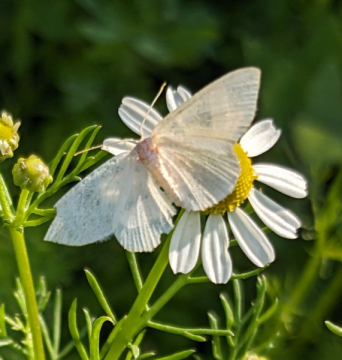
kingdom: Animalia
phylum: Arthropoda
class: Insecta
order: Lepidoptera
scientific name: Lepidoptera
